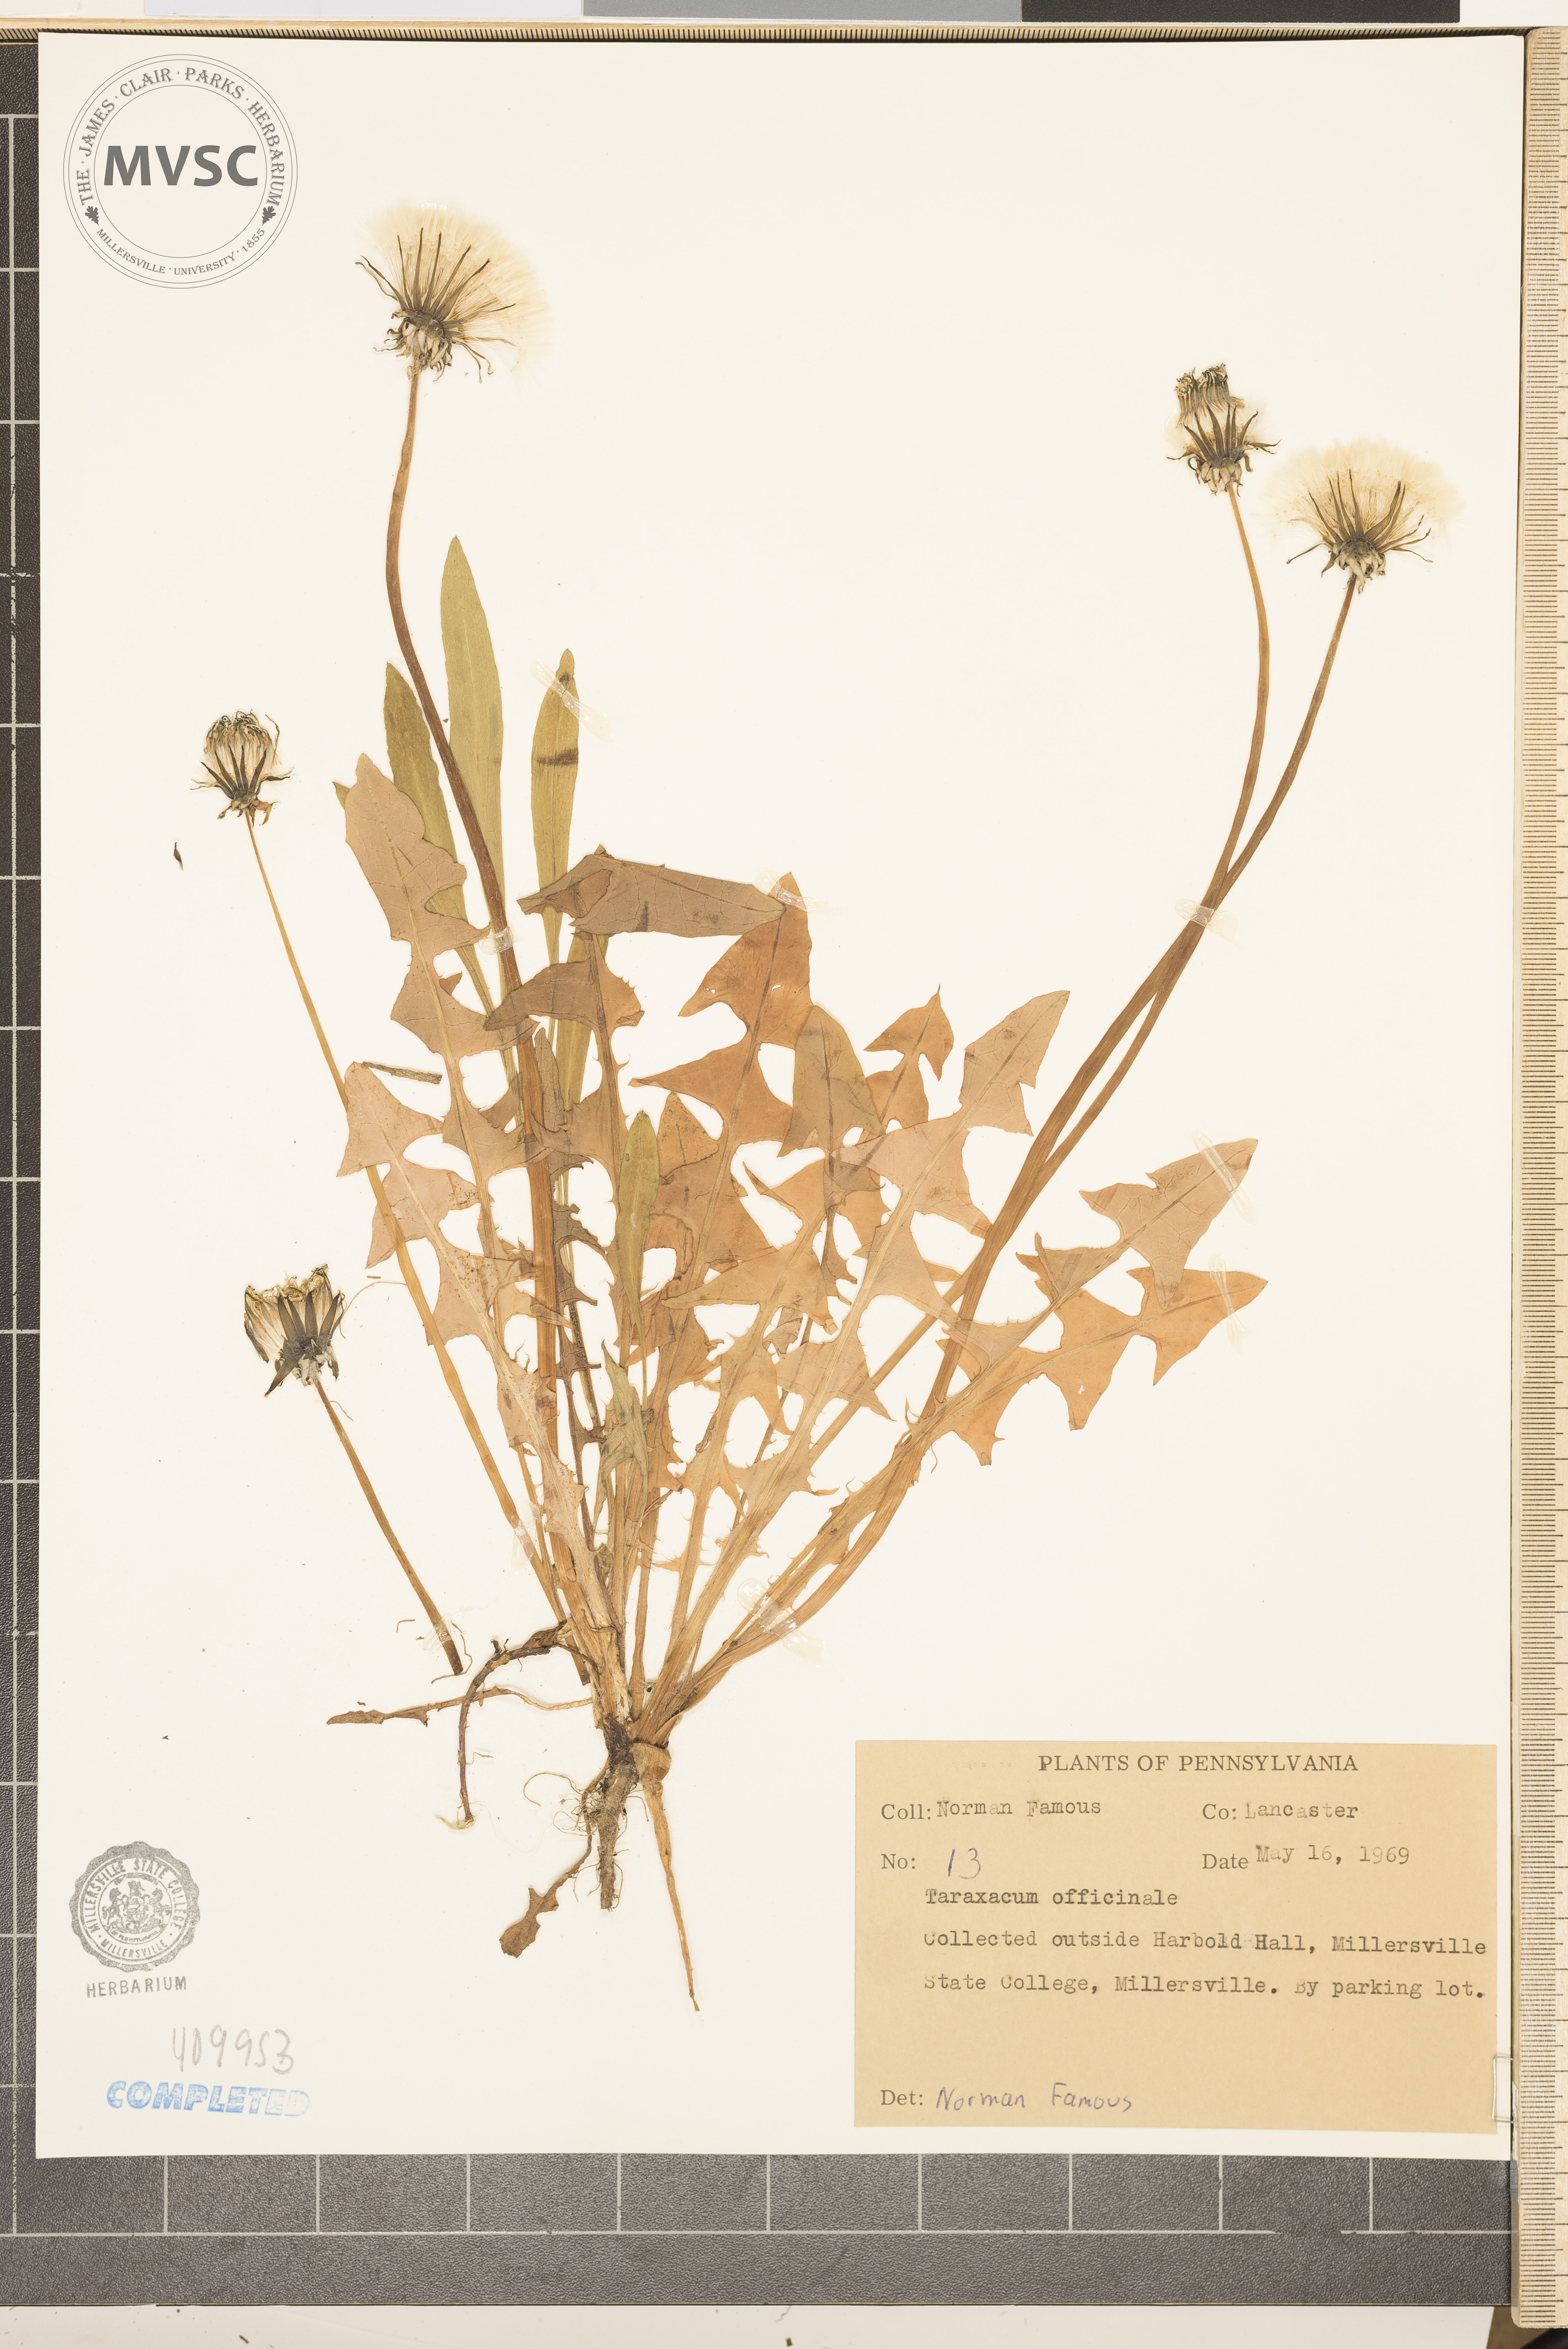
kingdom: Plantae
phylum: Tracheophyta
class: Magnoliopsida
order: Asterales
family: Asteraceae
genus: Taraxacum
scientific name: Taraxacum officinale
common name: Common dandelion
